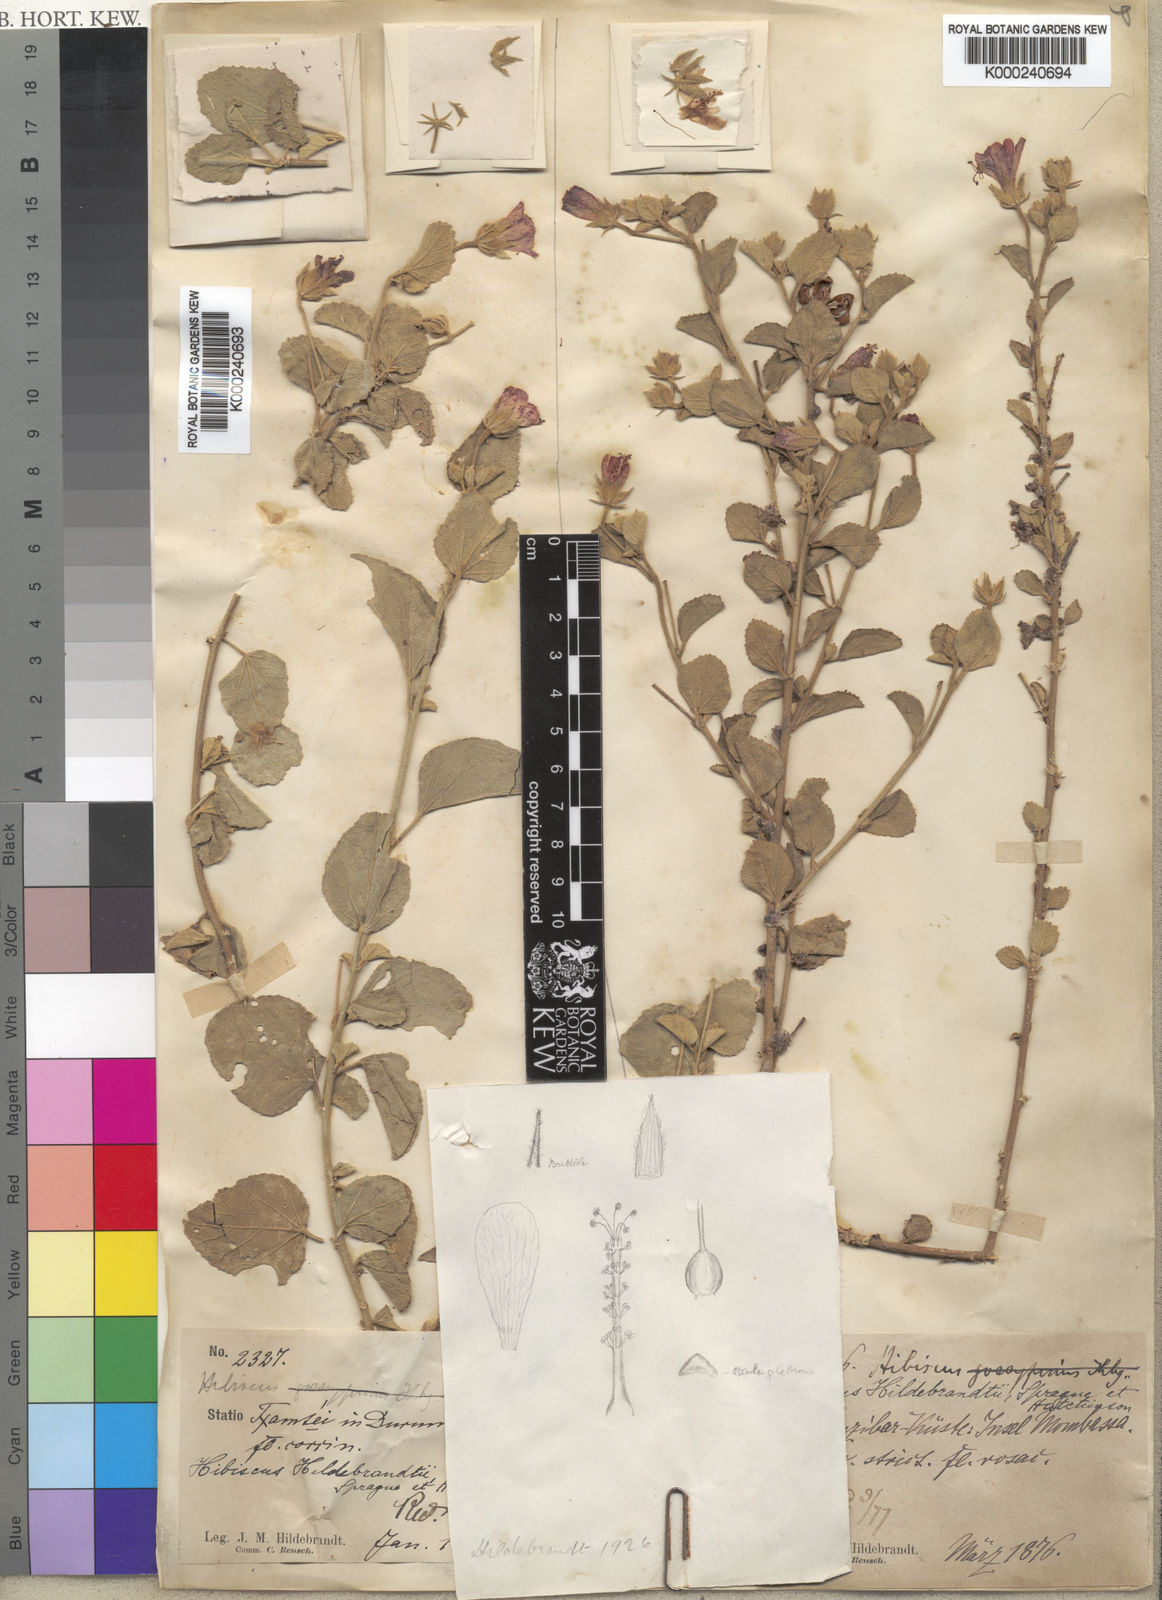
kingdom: Plantae
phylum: Tracheophyta
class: Magnoliopsida
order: Malvales
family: Malvaceae
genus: Hibiscus
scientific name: Hibiscus hildebrandtii
